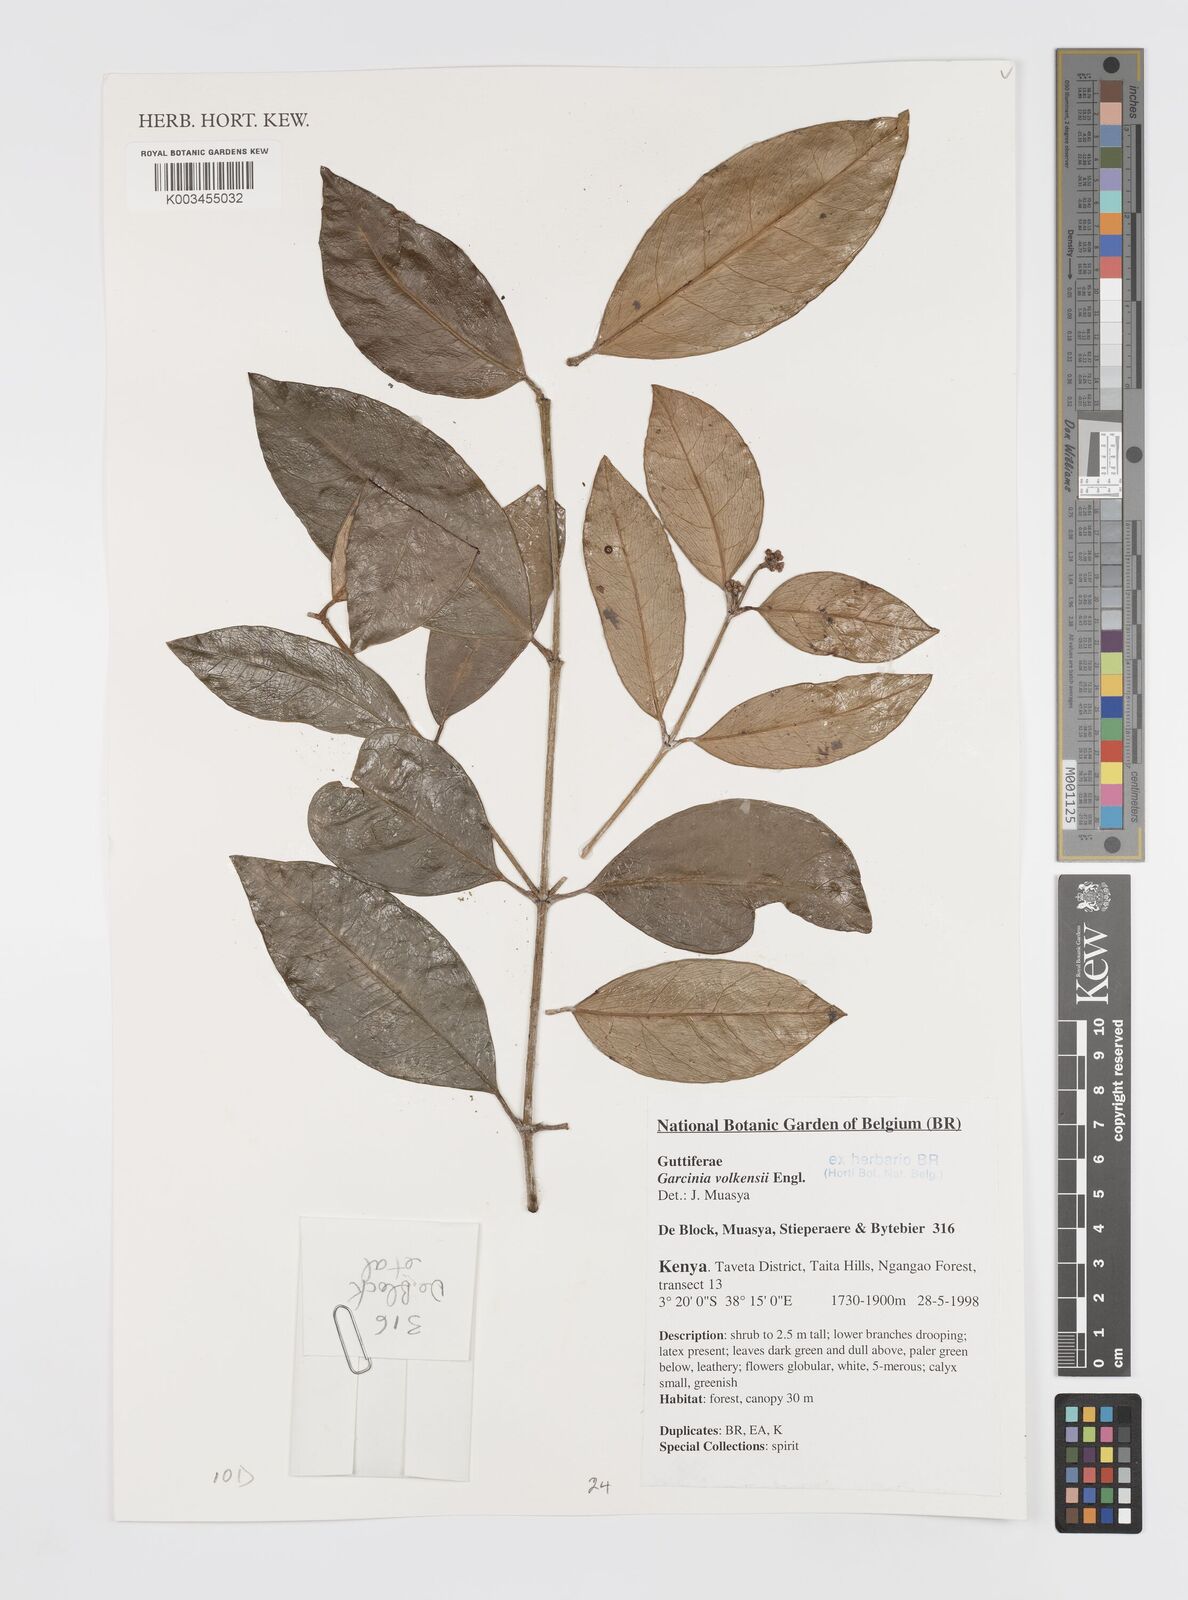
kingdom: Plantae
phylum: Tracheophyta
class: Magnoliopsida
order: Malpighiales
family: Clusiaceae
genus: Garcinia
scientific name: Garcinia volkensii
